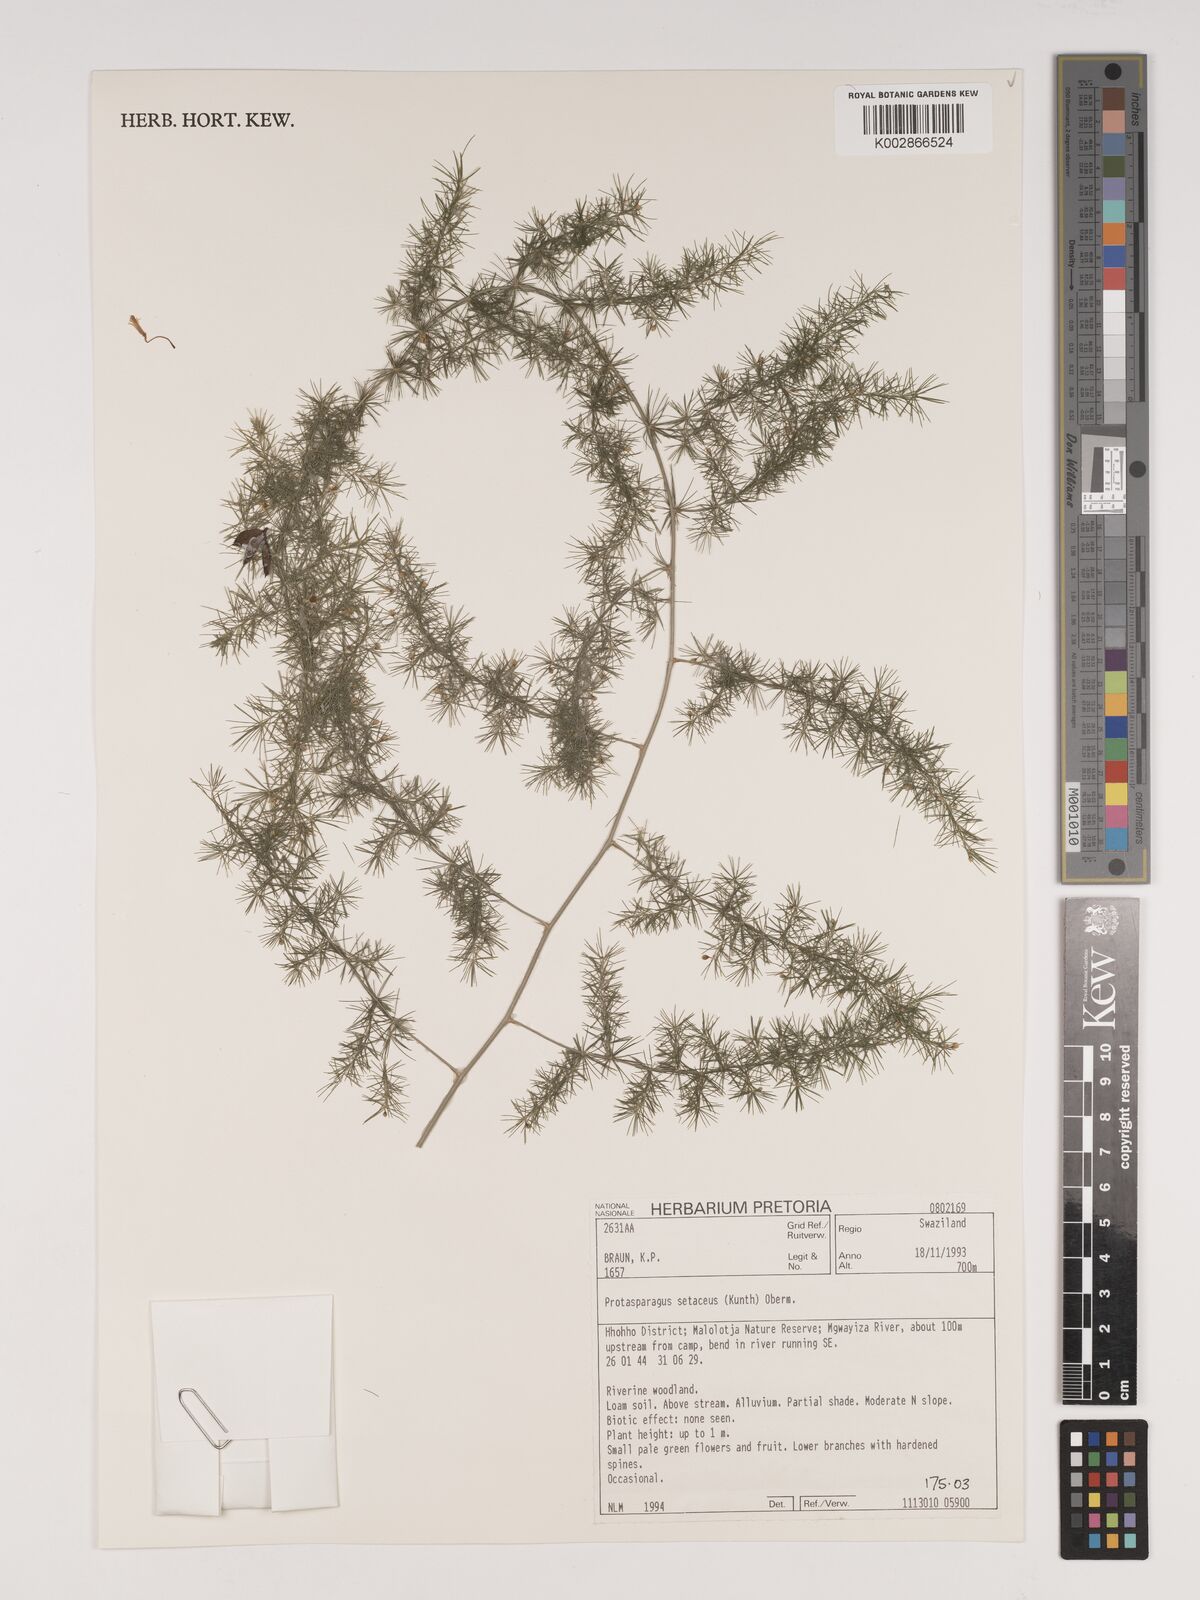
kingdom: Plantae
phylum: Tracheophyta
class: Liliopsida
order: Asparagales
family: Asparagaceae
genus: Asparagus
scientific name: Asparagus setaceus
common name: Common asparagus fern
